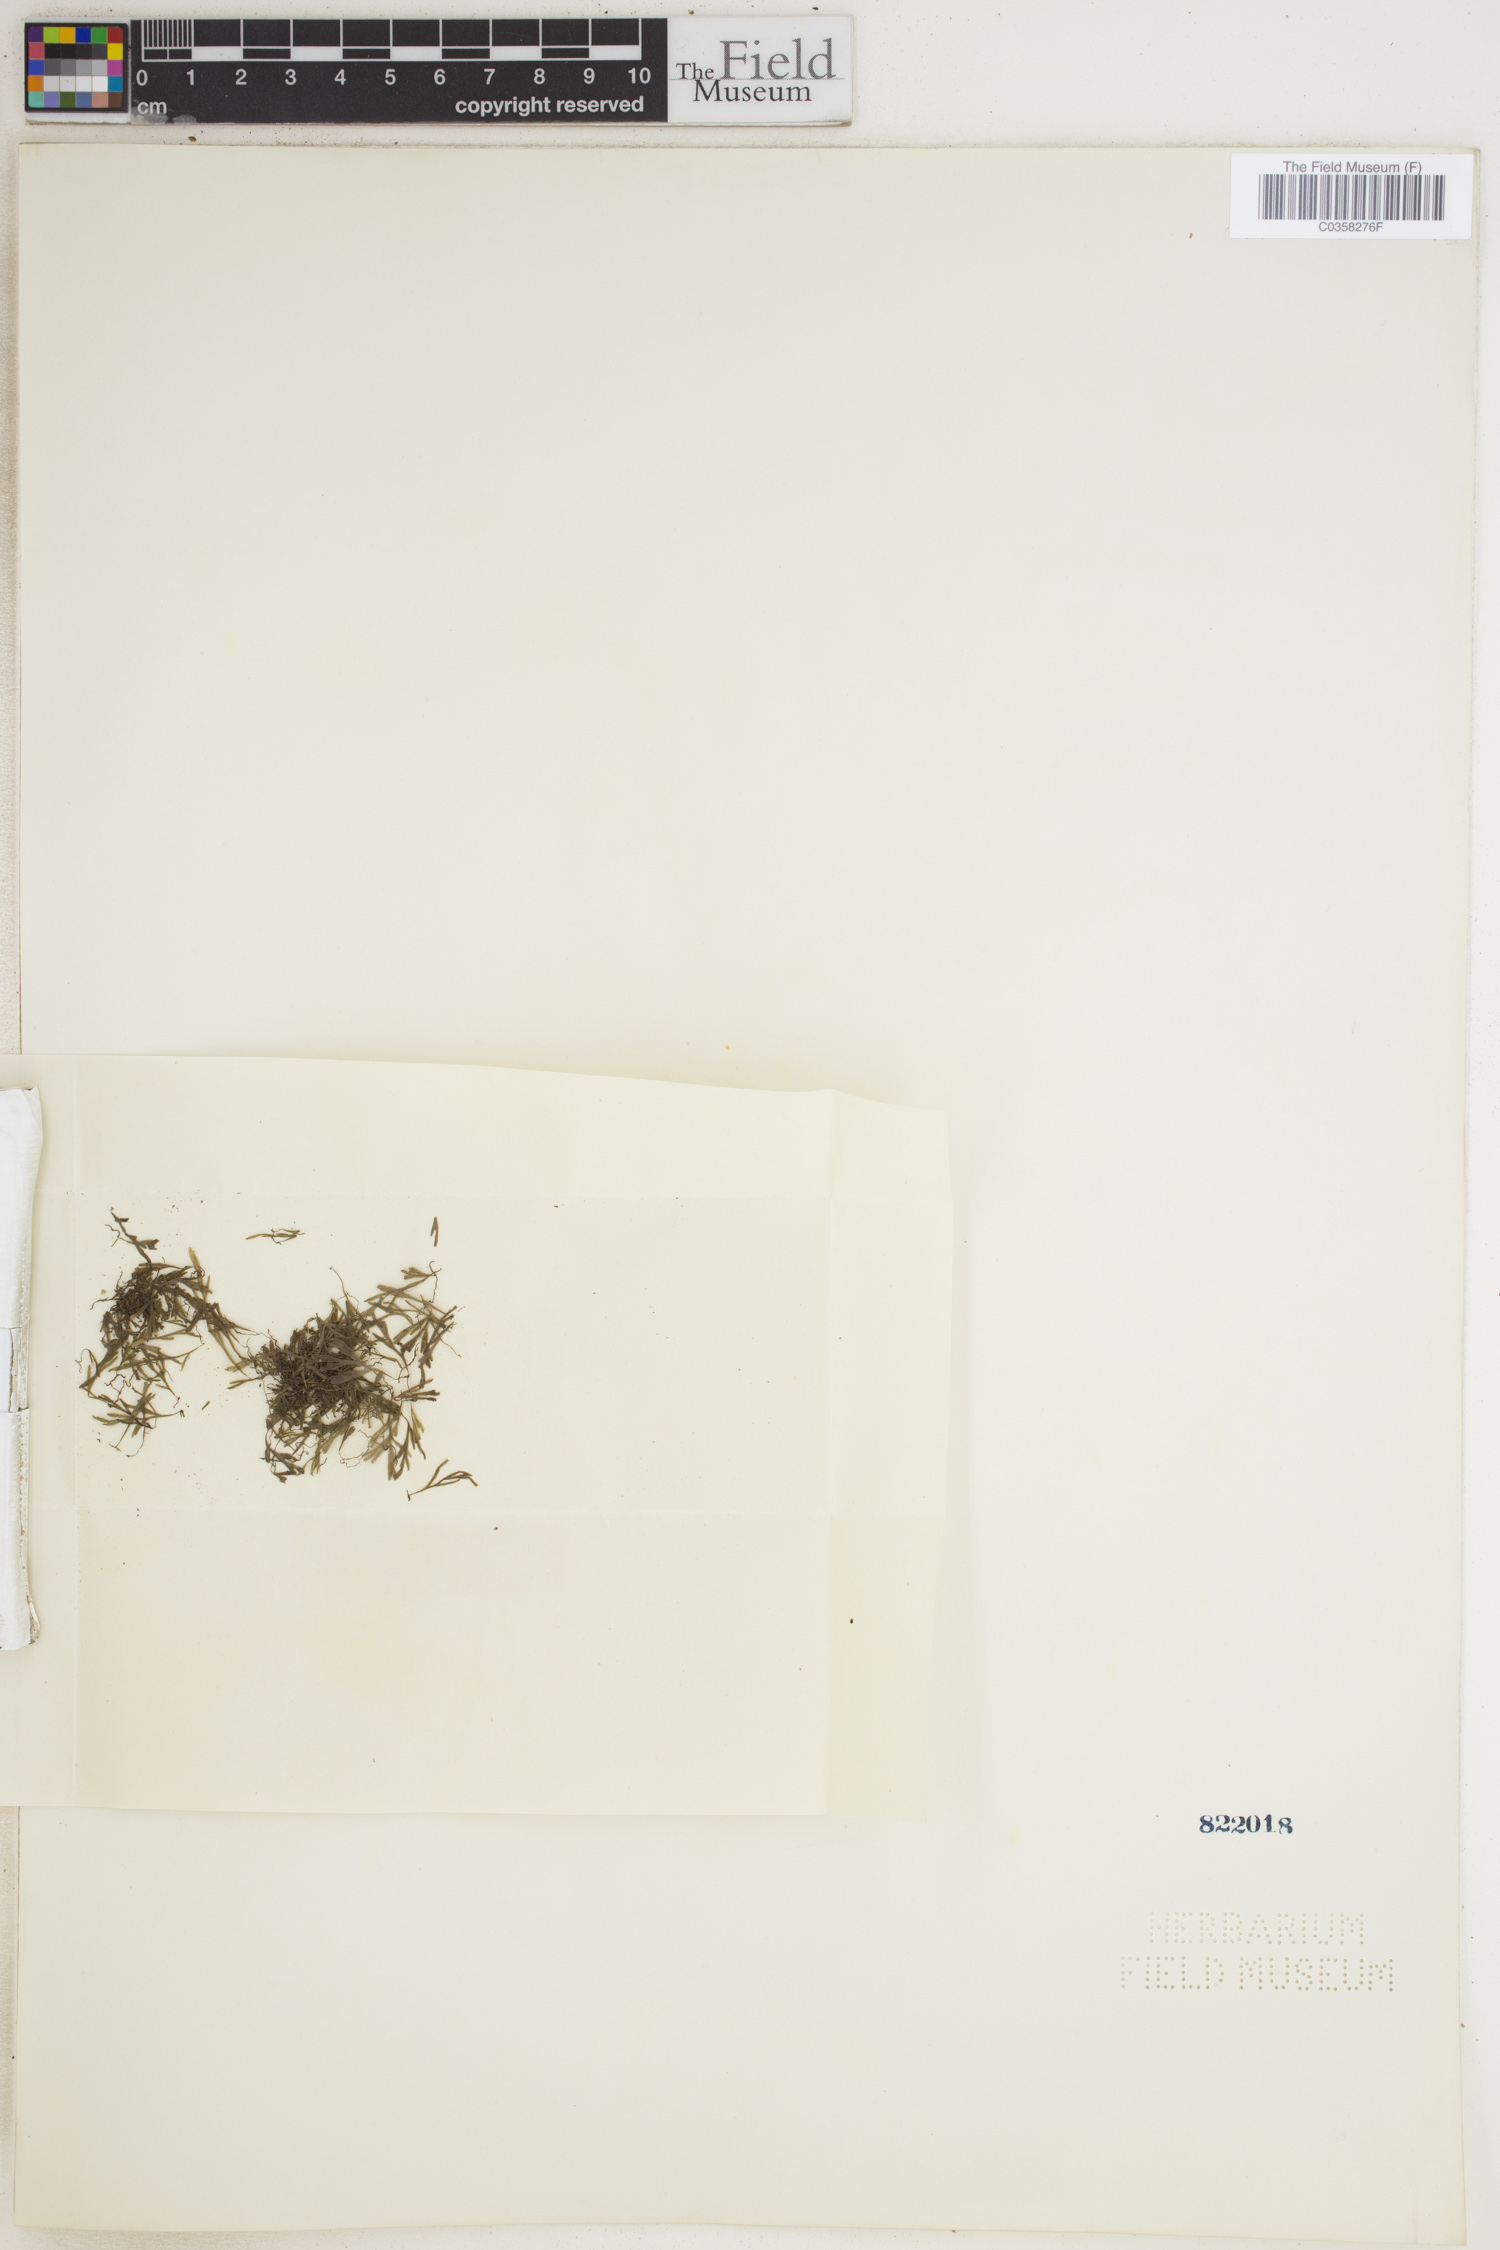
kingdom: Plantae
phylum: Tracheophyta
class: Polypodiopsida
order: Hymenophyllales
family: Hymenophyllaceae
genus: Polyphlebium
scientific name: Polyphlebium endlicherianum
